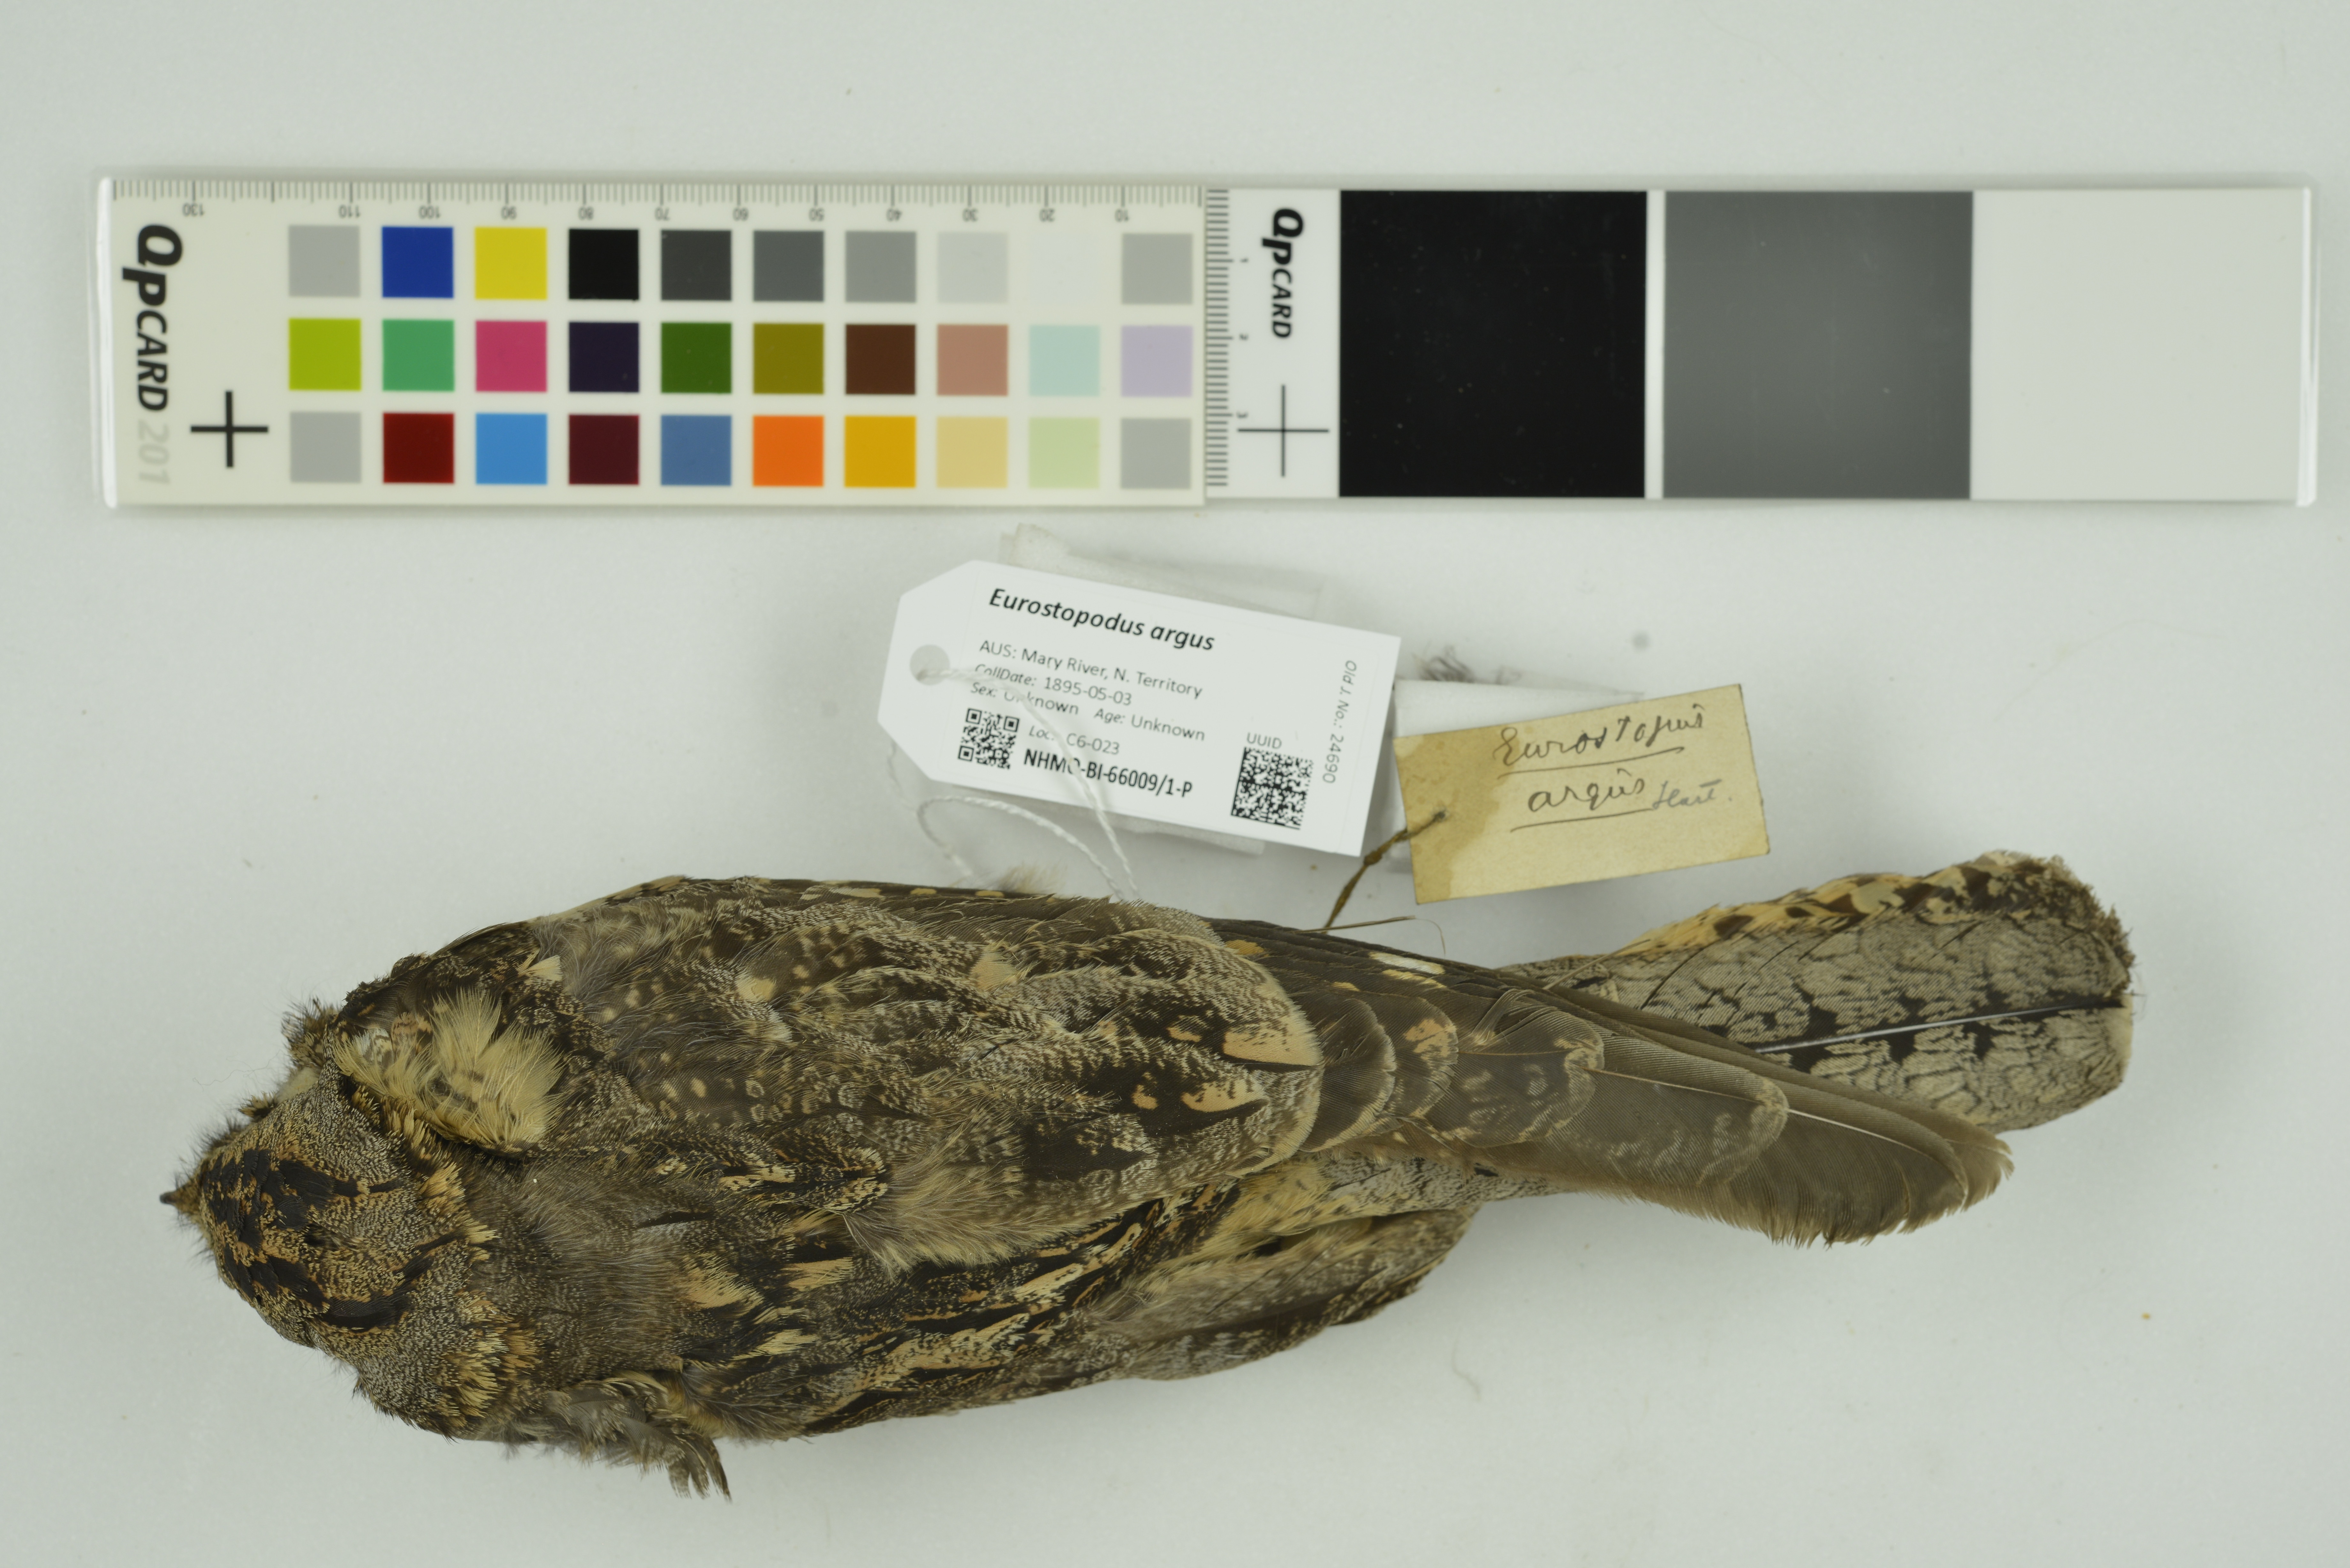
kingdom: Animalia
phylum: Chordata
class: Aves
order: Caprimulgiformes
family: Caprimulgidae
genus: Eurostopodus
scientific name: Eurostopodus argus
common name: Spotted nightjar
